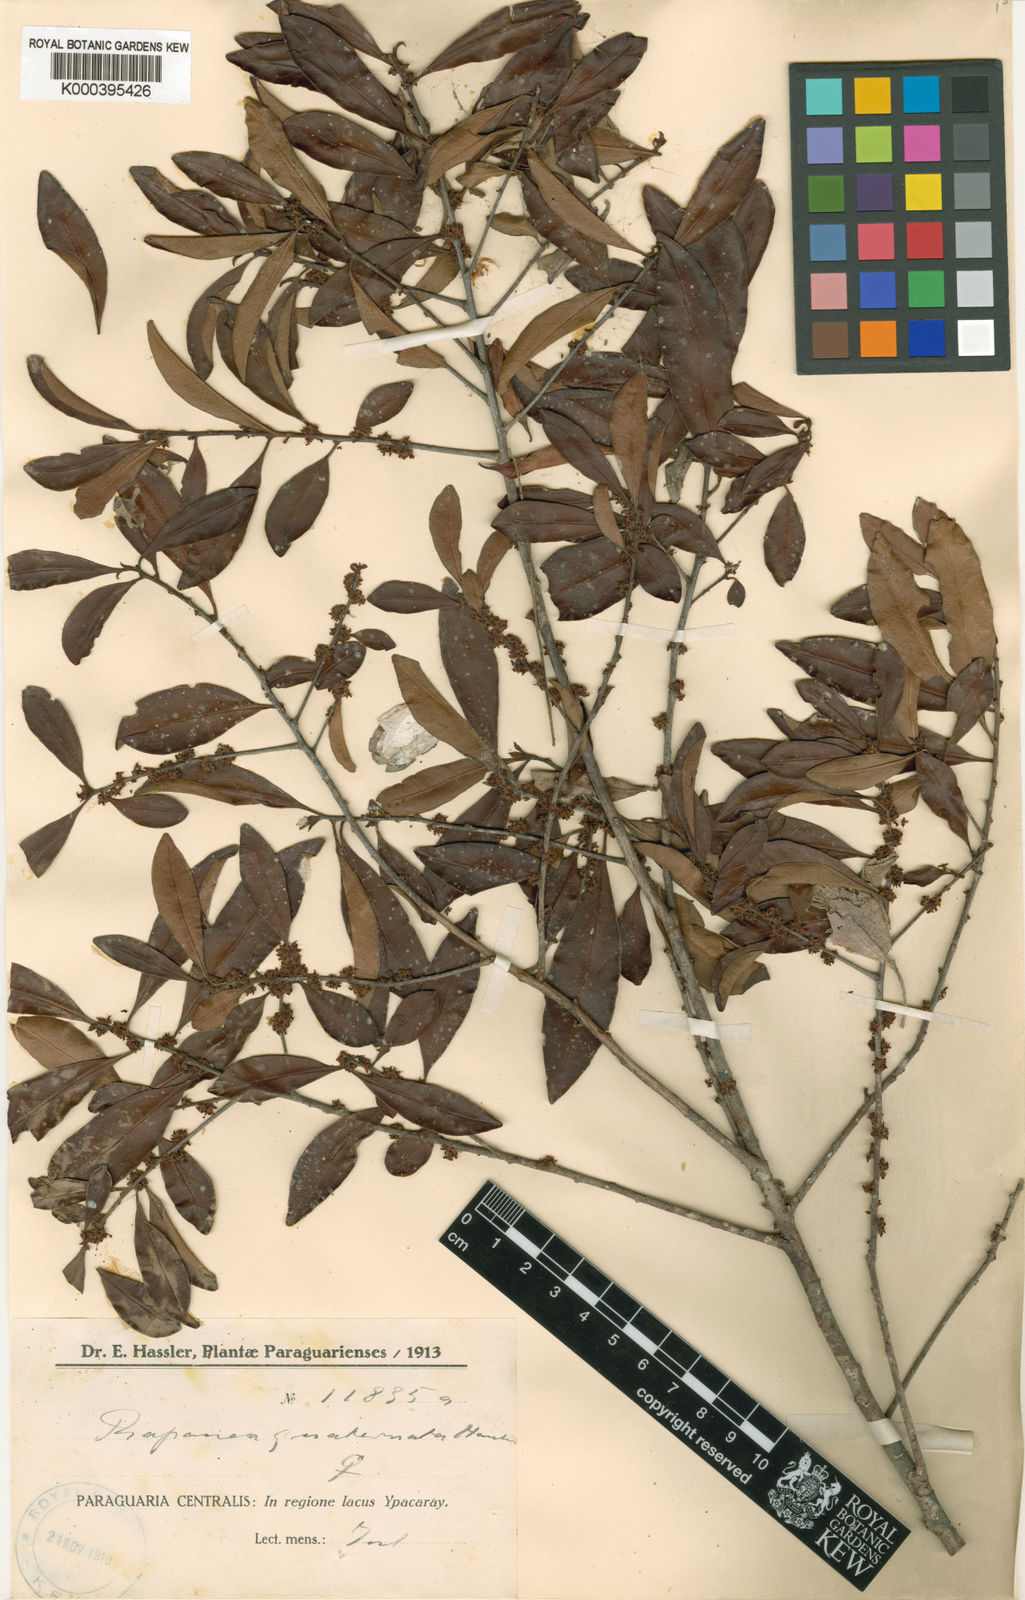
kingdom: Plantae
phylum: Tracheophyta
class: Magnoliopsida
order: Ericales
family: Primulaceae
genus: Myrsine
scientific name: Myrsine
